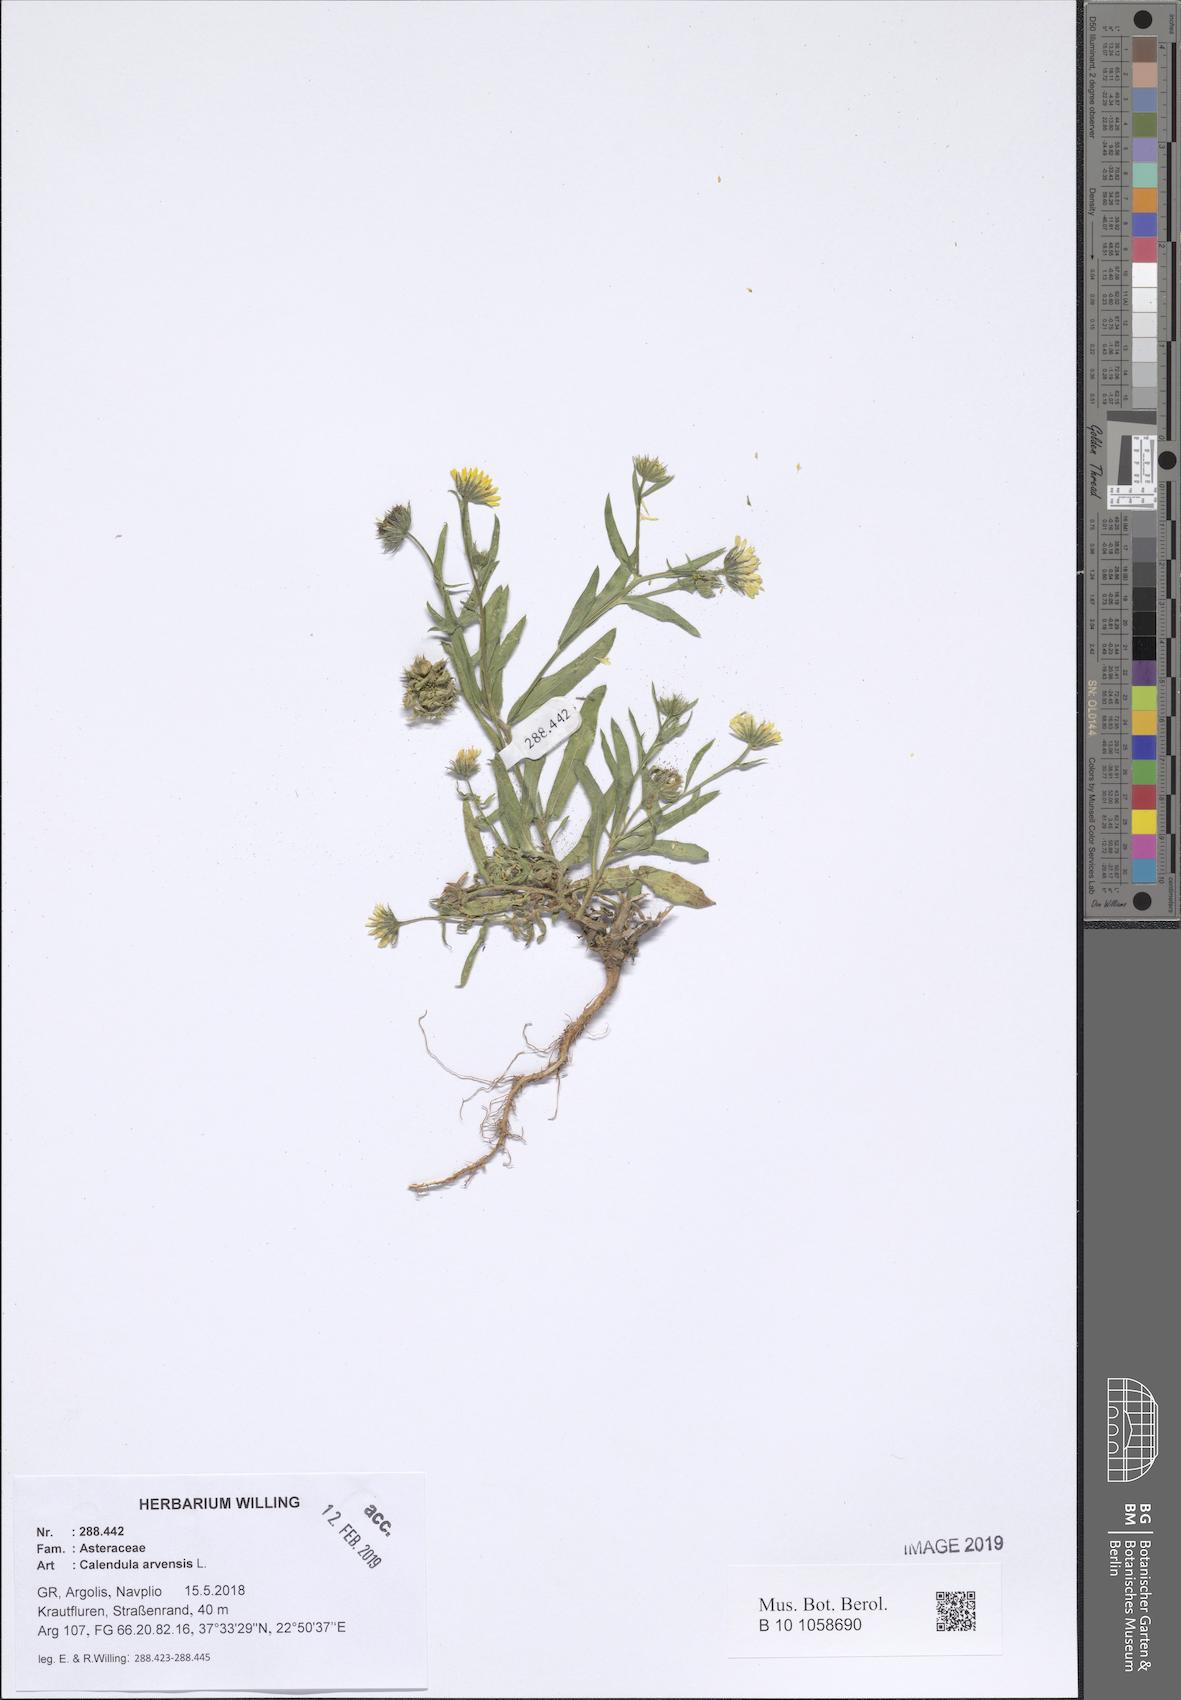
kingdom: Plantae
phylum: Tracheophyta
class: Magnoliopsida
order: Asterales
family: Asteraceae
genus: Calendula
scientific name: Calendula arvensis
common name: Field marigold
